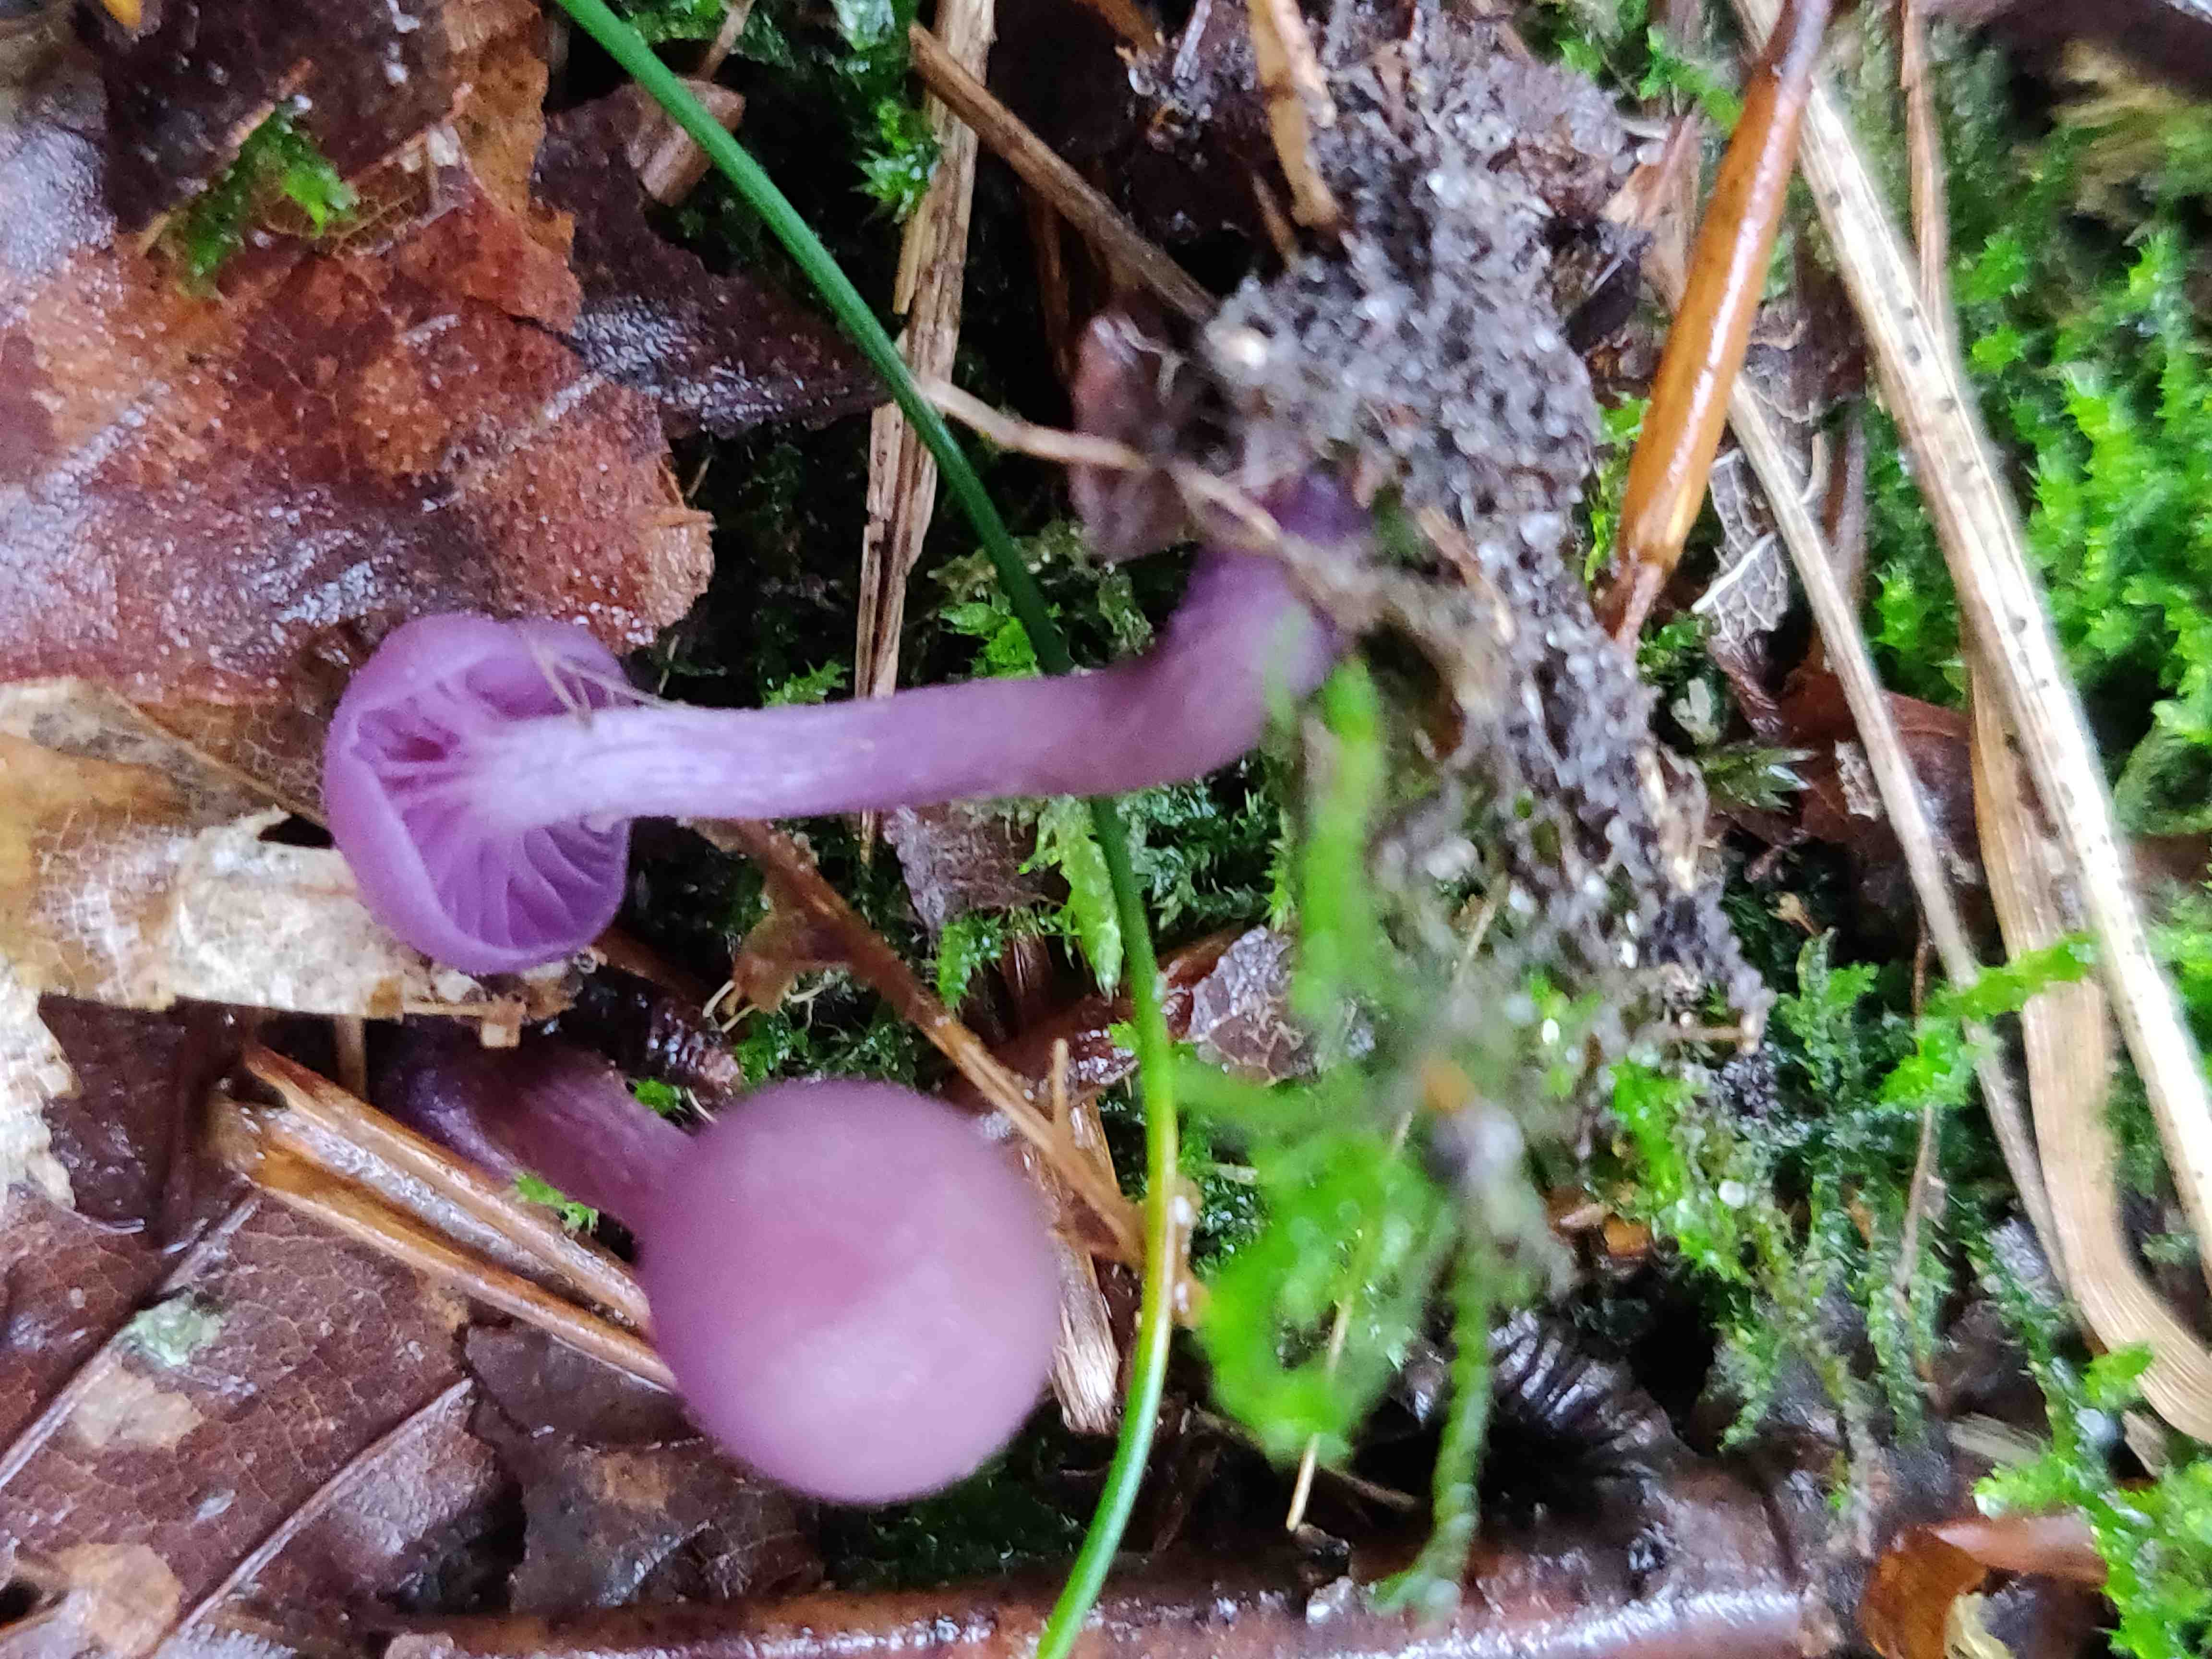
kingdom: Fungi
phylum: Basidiomycota
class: Agaricomycetes
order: Agaricales
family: Hydnangiaceae
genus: Laccaria
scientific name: Laccaria amethystina
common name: violet ametysthat
